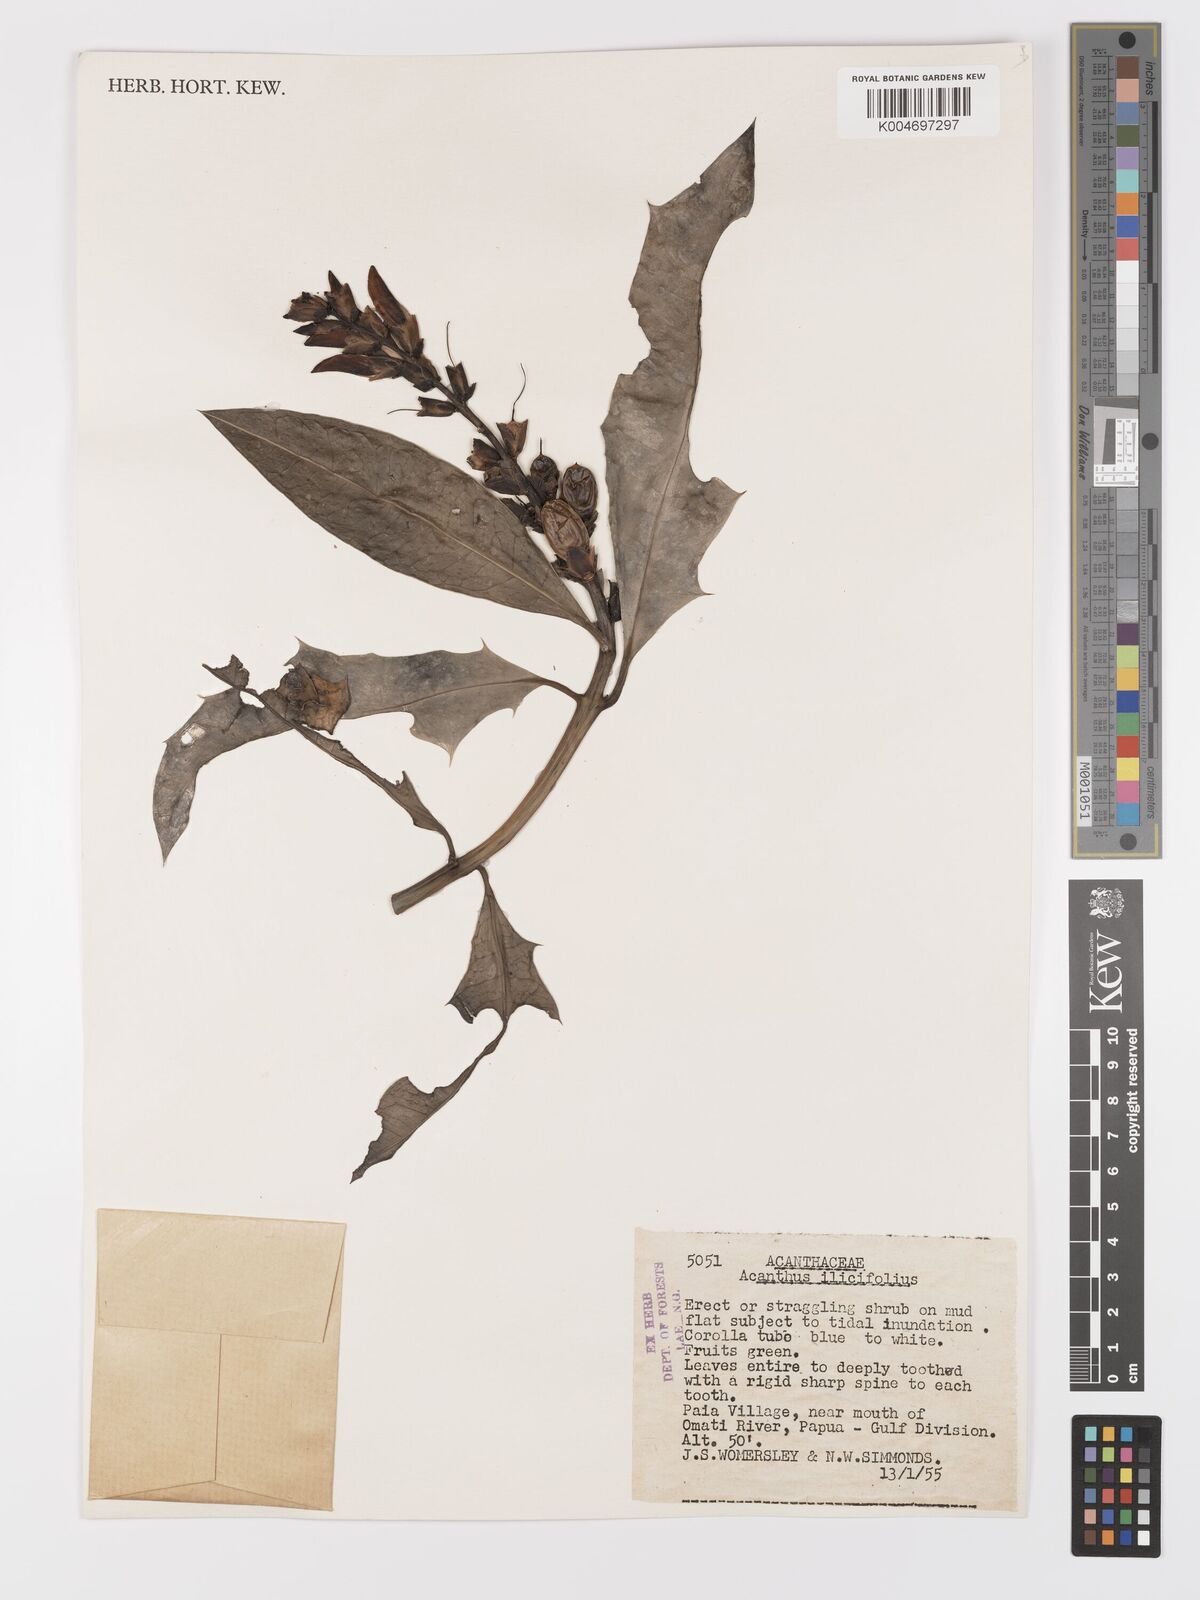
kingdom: Plantae
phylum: Tracheophyta
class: Magnoliopsida
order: Lamiales
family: Acanthaceae
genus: Acanthus
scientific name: Acanthus ilicifolius
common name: Holy mangrove
